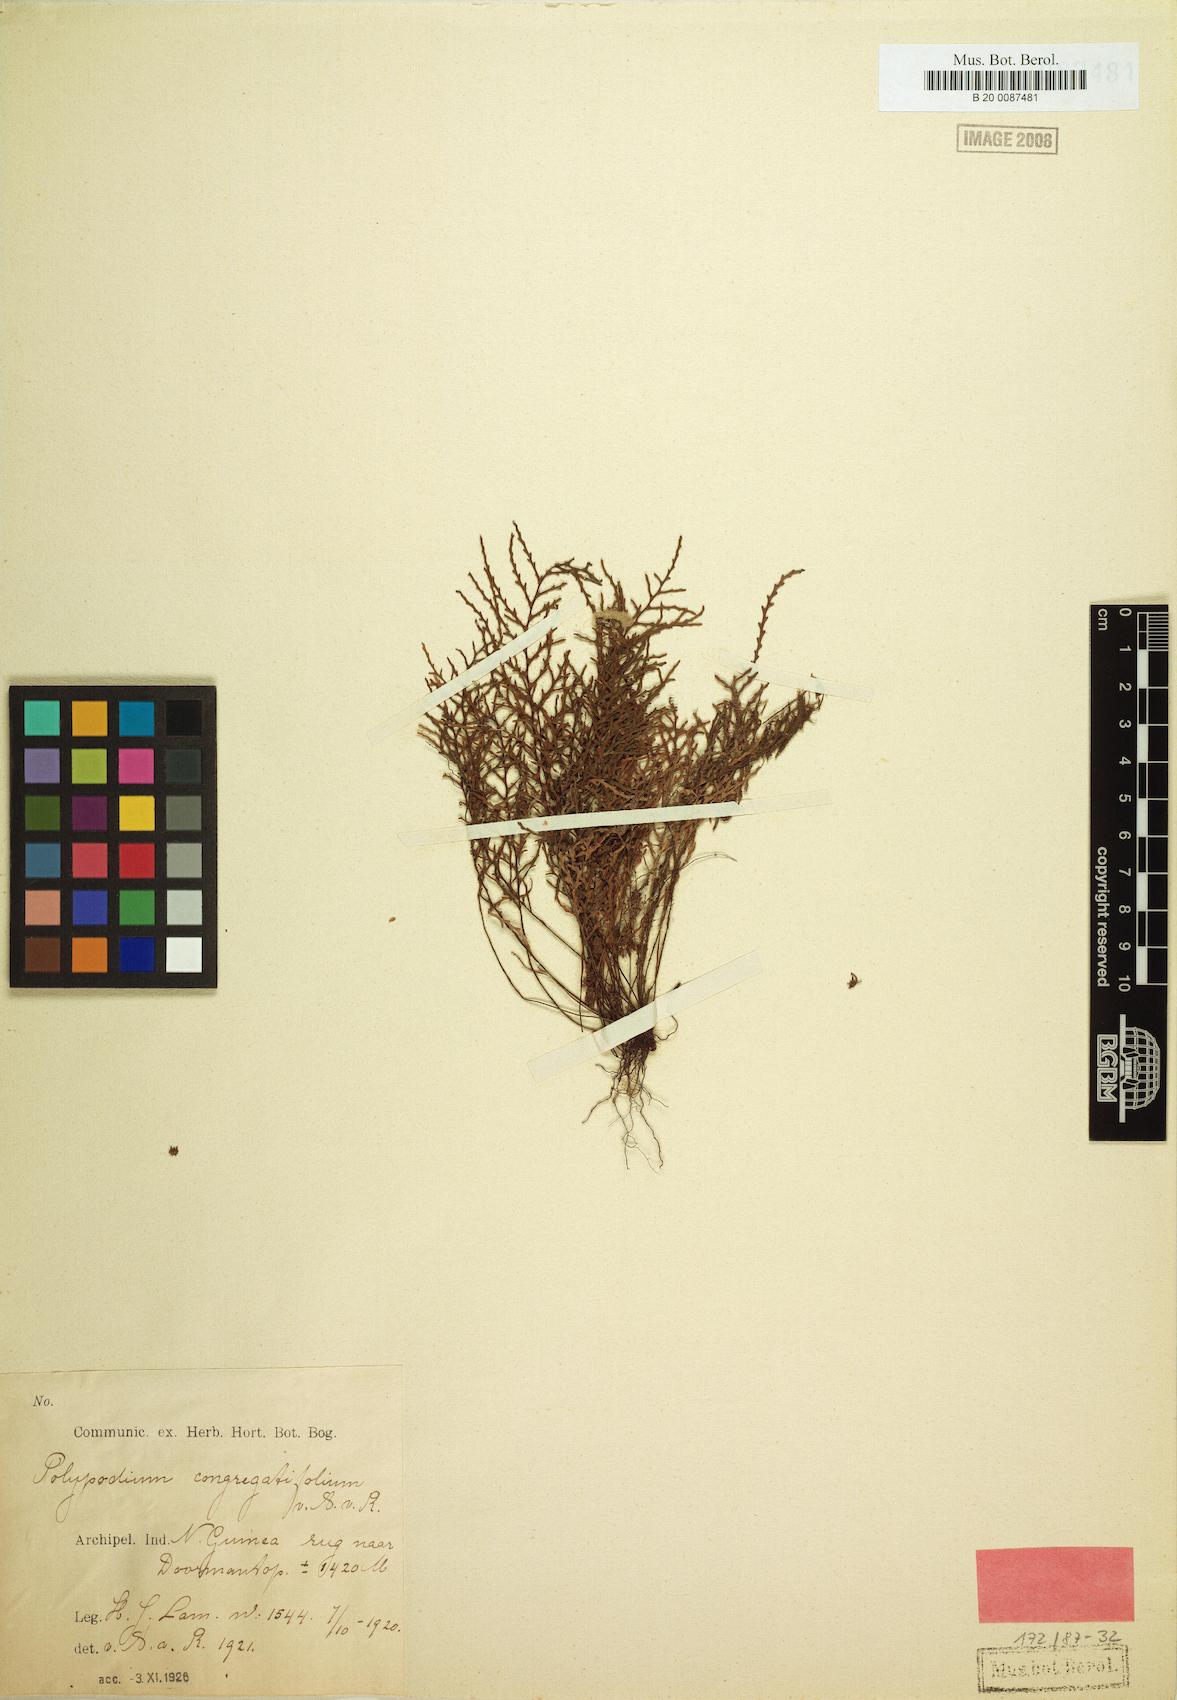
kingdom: Plantae
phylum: Tracheophyta
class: Polypodiopsida
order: Polypodiales
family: Polypodiaceae
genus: Tomophyllum
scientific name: Tomophyllum congregatifolium
